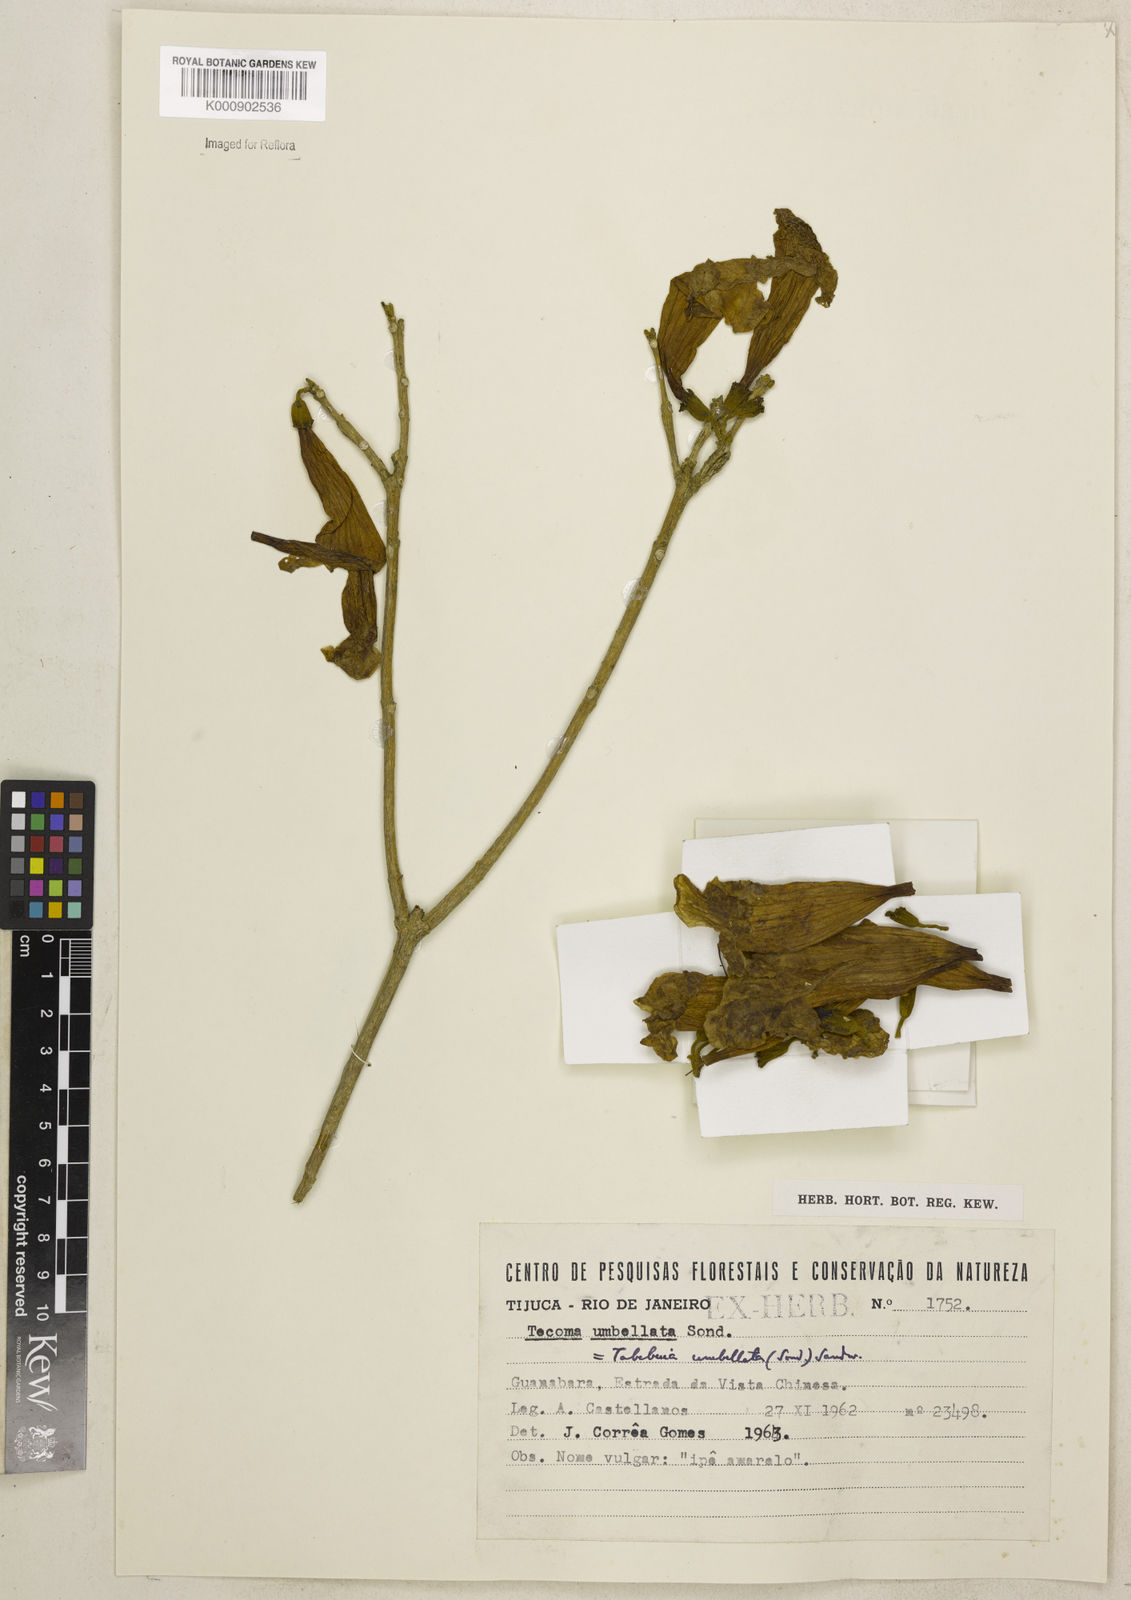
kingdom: Plantae
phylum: Tracheophyta
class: Magnoliopsida
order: Lamiales
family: Bignoniaceae
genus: Handroanthus
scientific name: Handroanthus umbellatus
